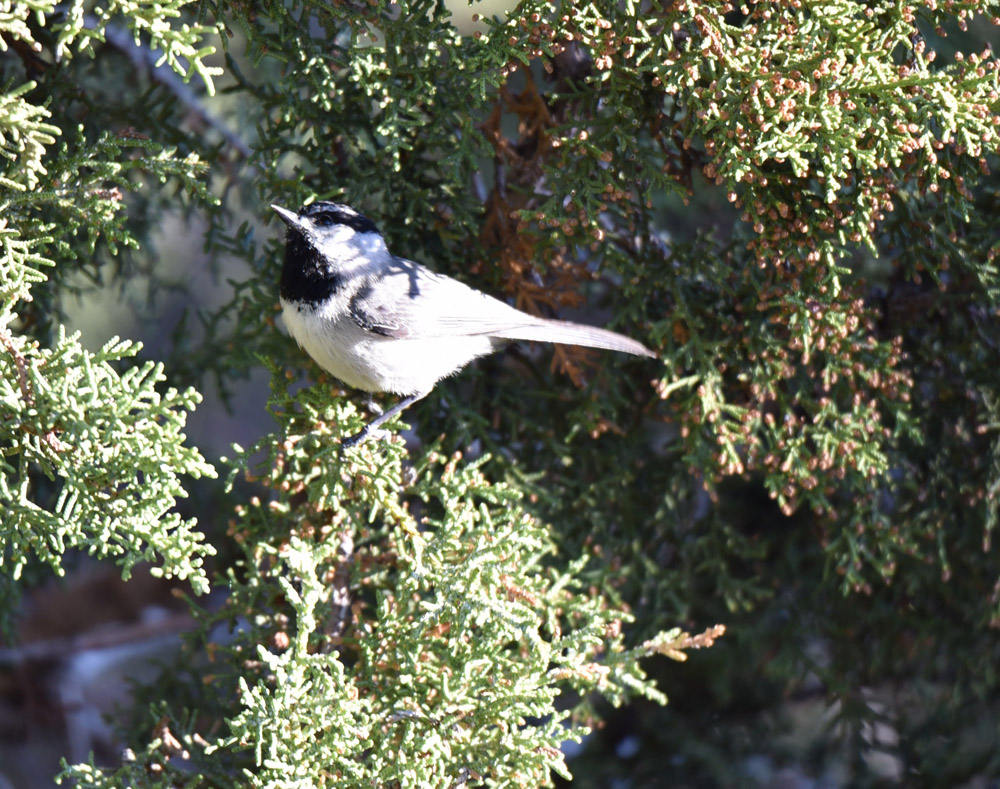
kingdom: Animalia
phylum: Chordata
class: Aves
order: Passeriformes
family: Paridae
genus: Poecile
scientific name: Poecile gambeli
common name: Mountain chickadee
